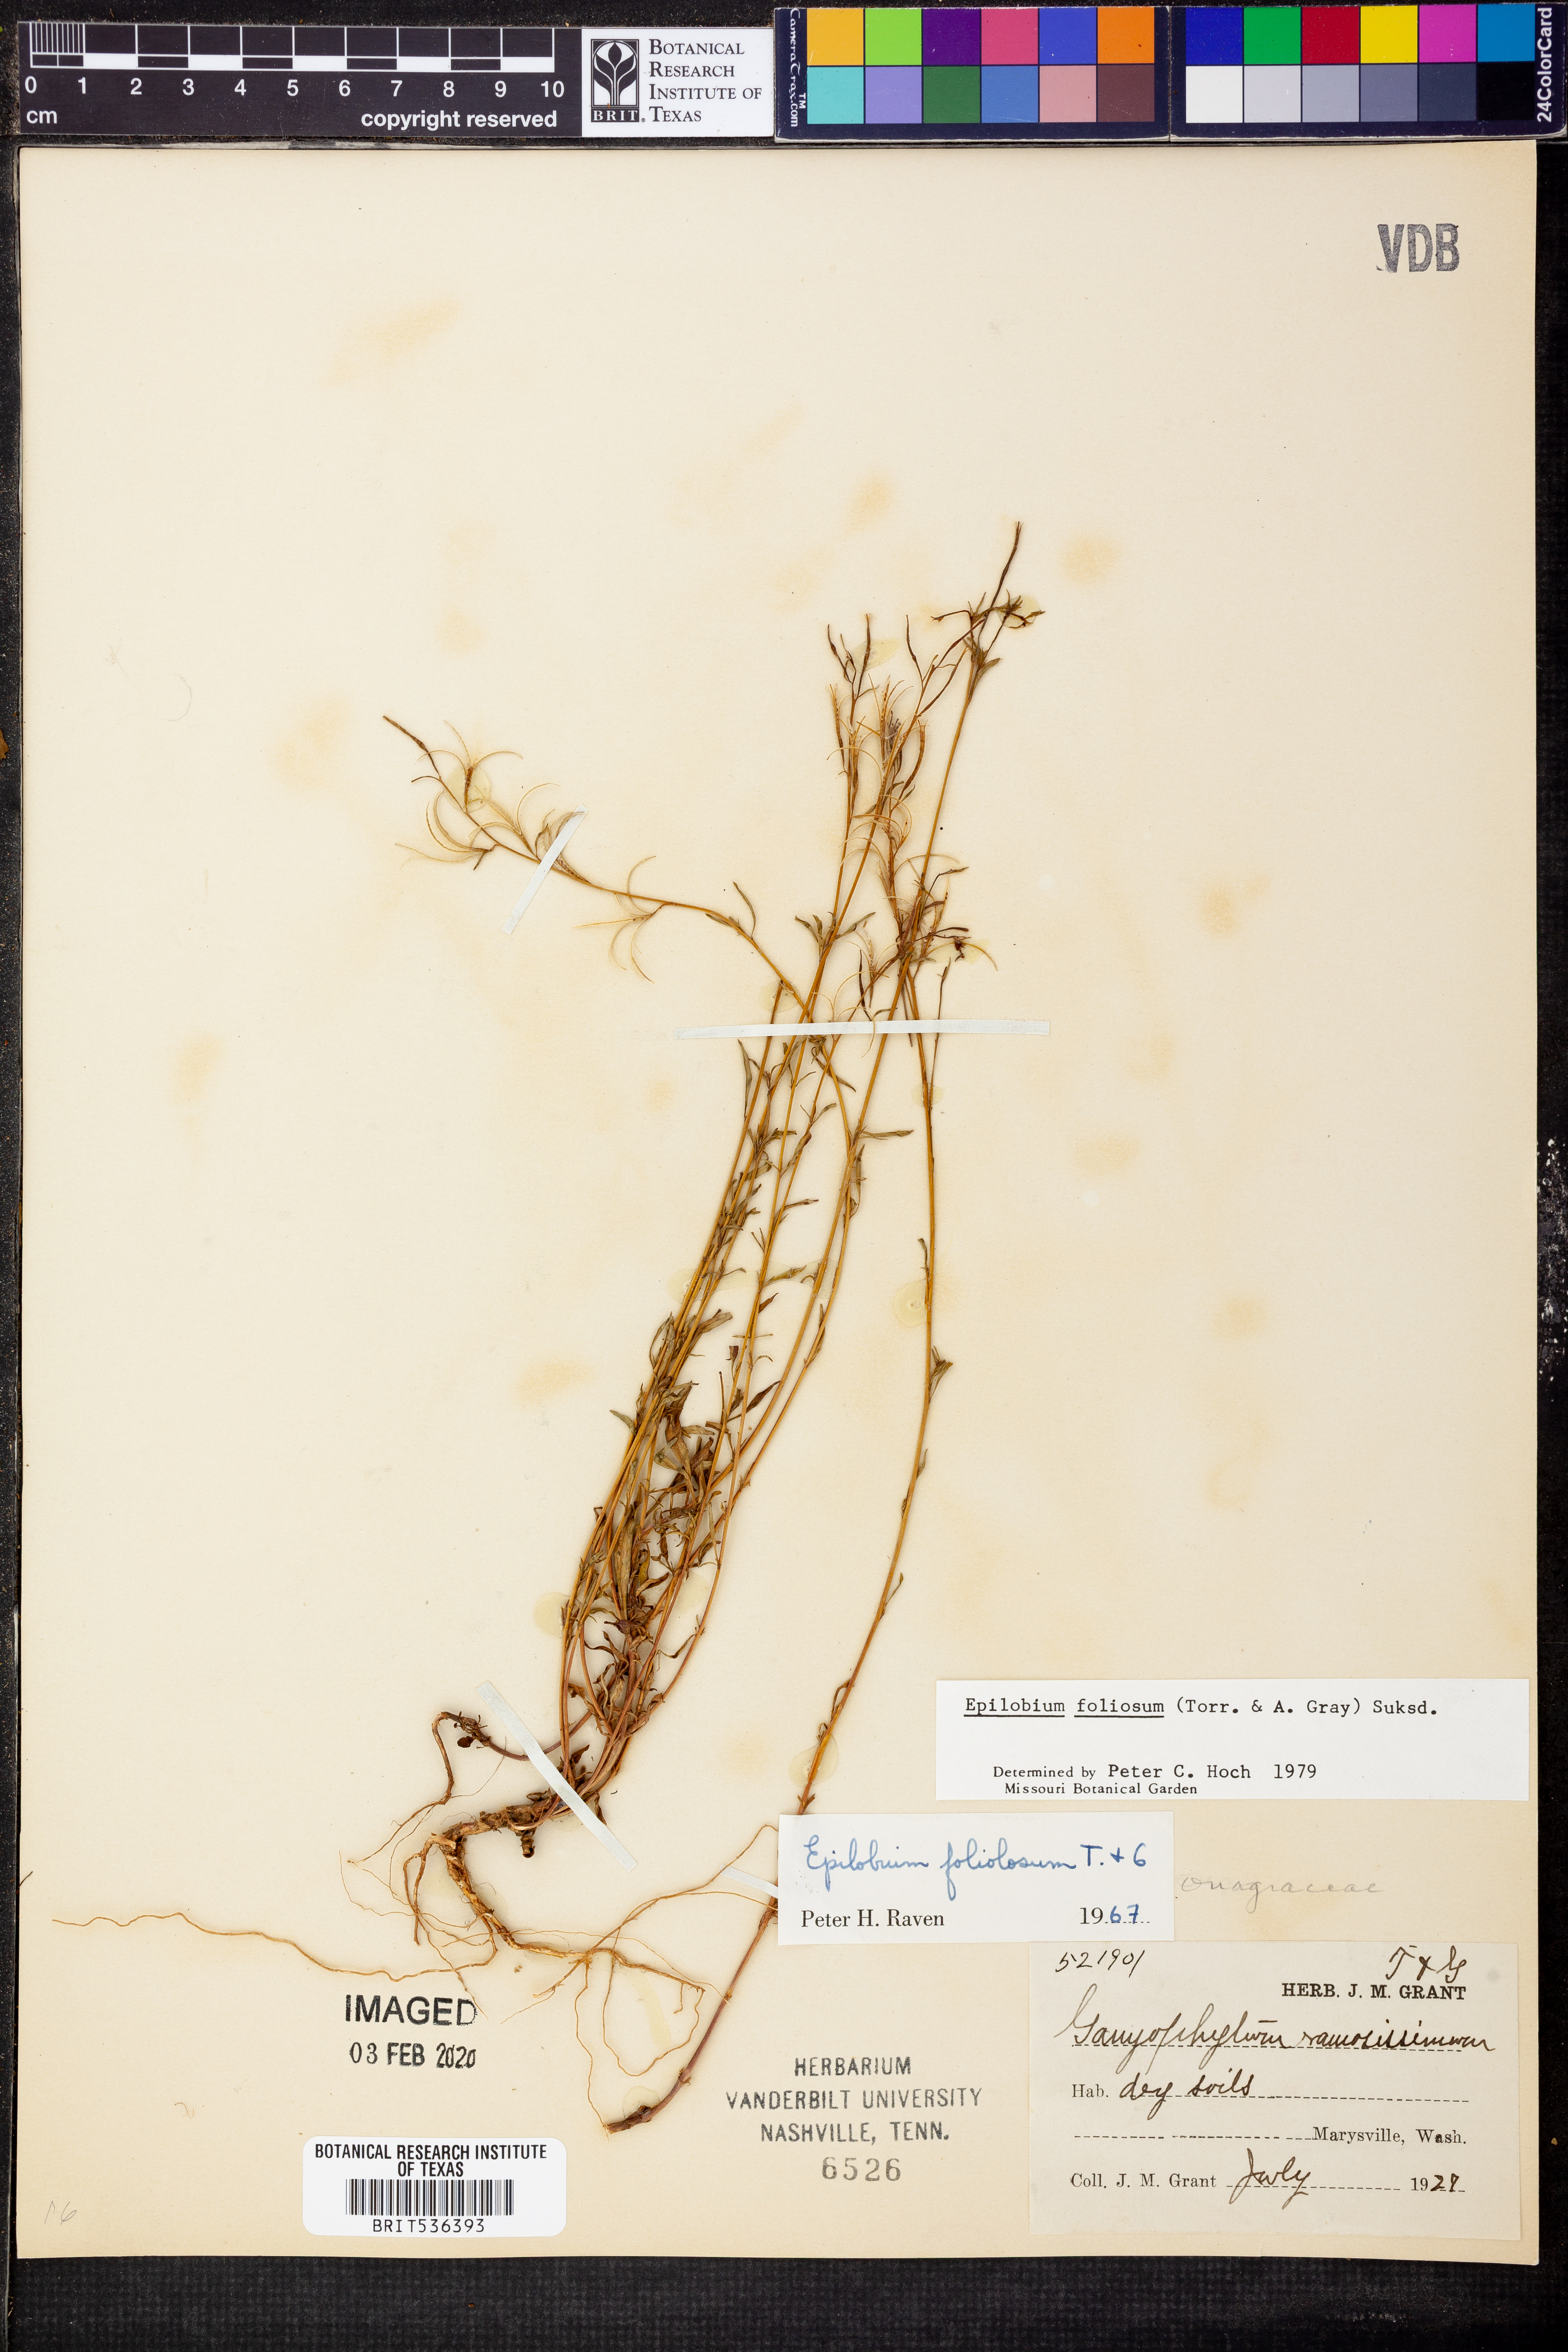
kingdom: Plantae
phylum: Tracheophyta
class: Magnoliopsida
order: Myrtales
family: Onagraceae
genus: Epilobium
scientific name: Epilobium ravenii
